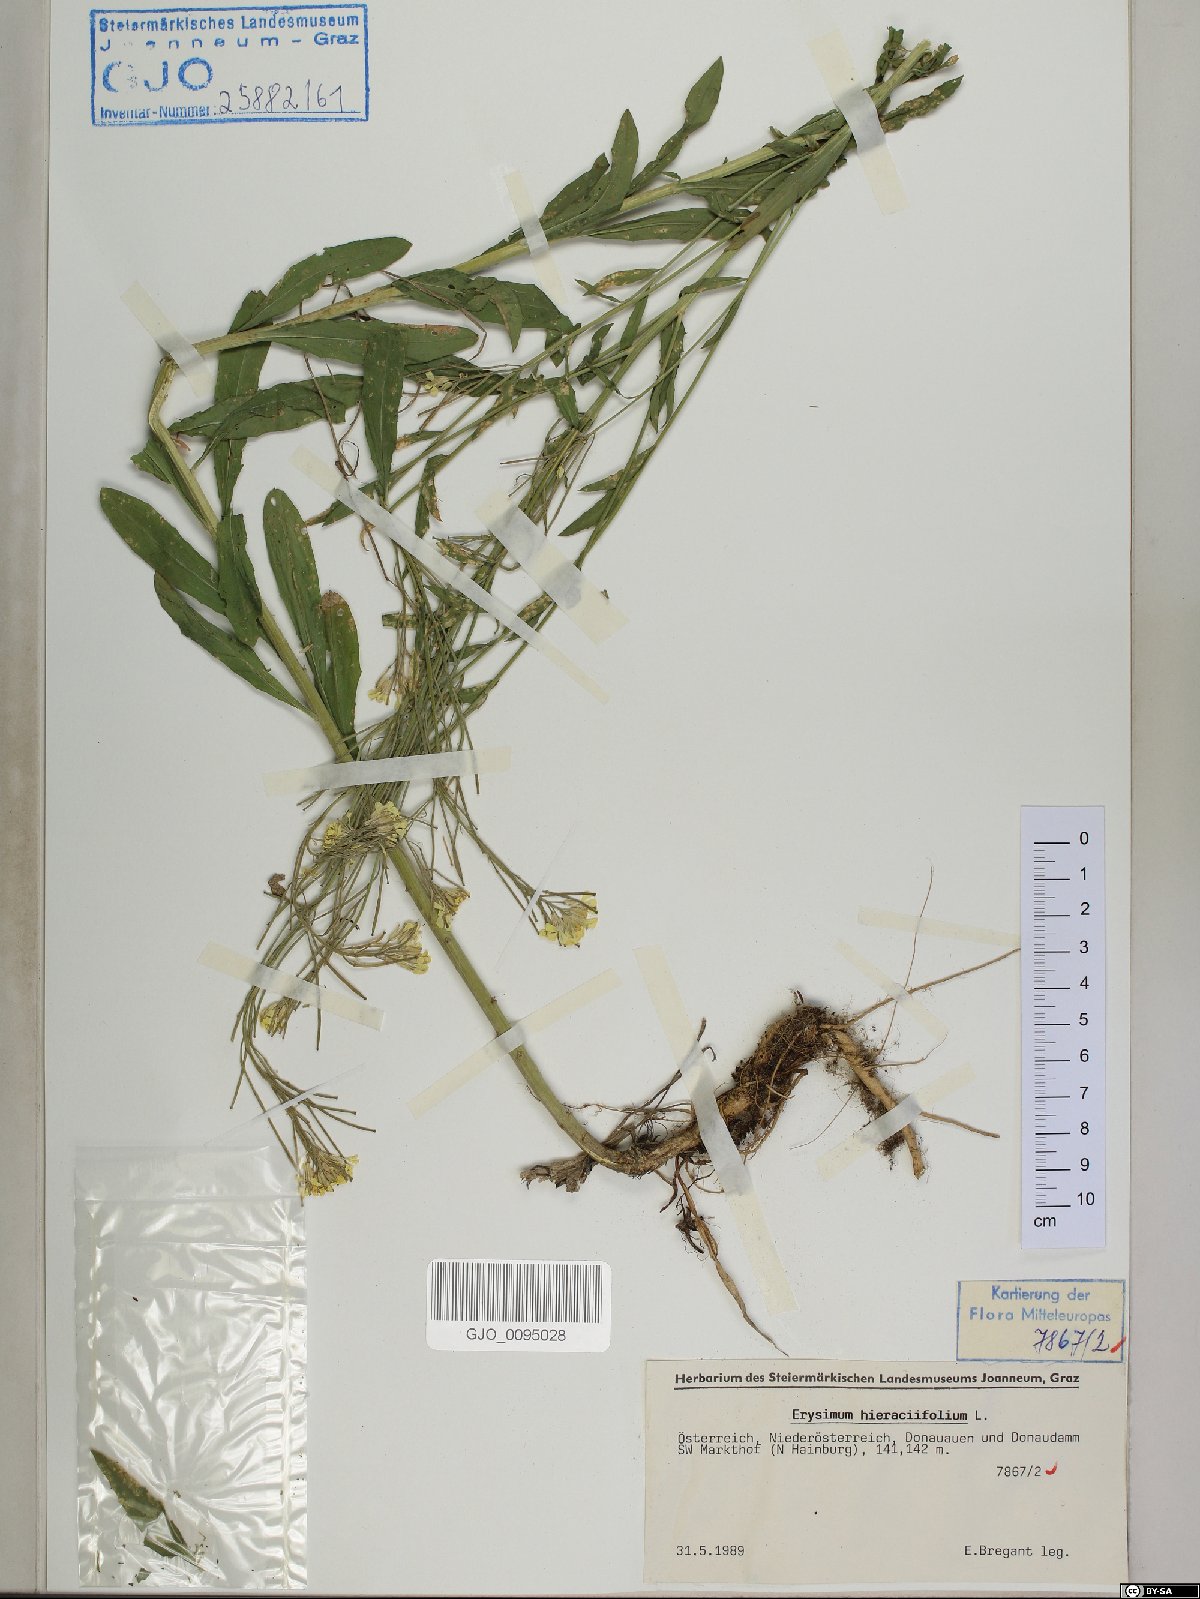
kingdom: Plantae
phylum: Tracheophyta
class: Magnoliopsida
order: Brassicales
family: Brassicaceae
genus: Erysimum
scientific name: Erysimum hieraciifolium
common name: European wallflower
